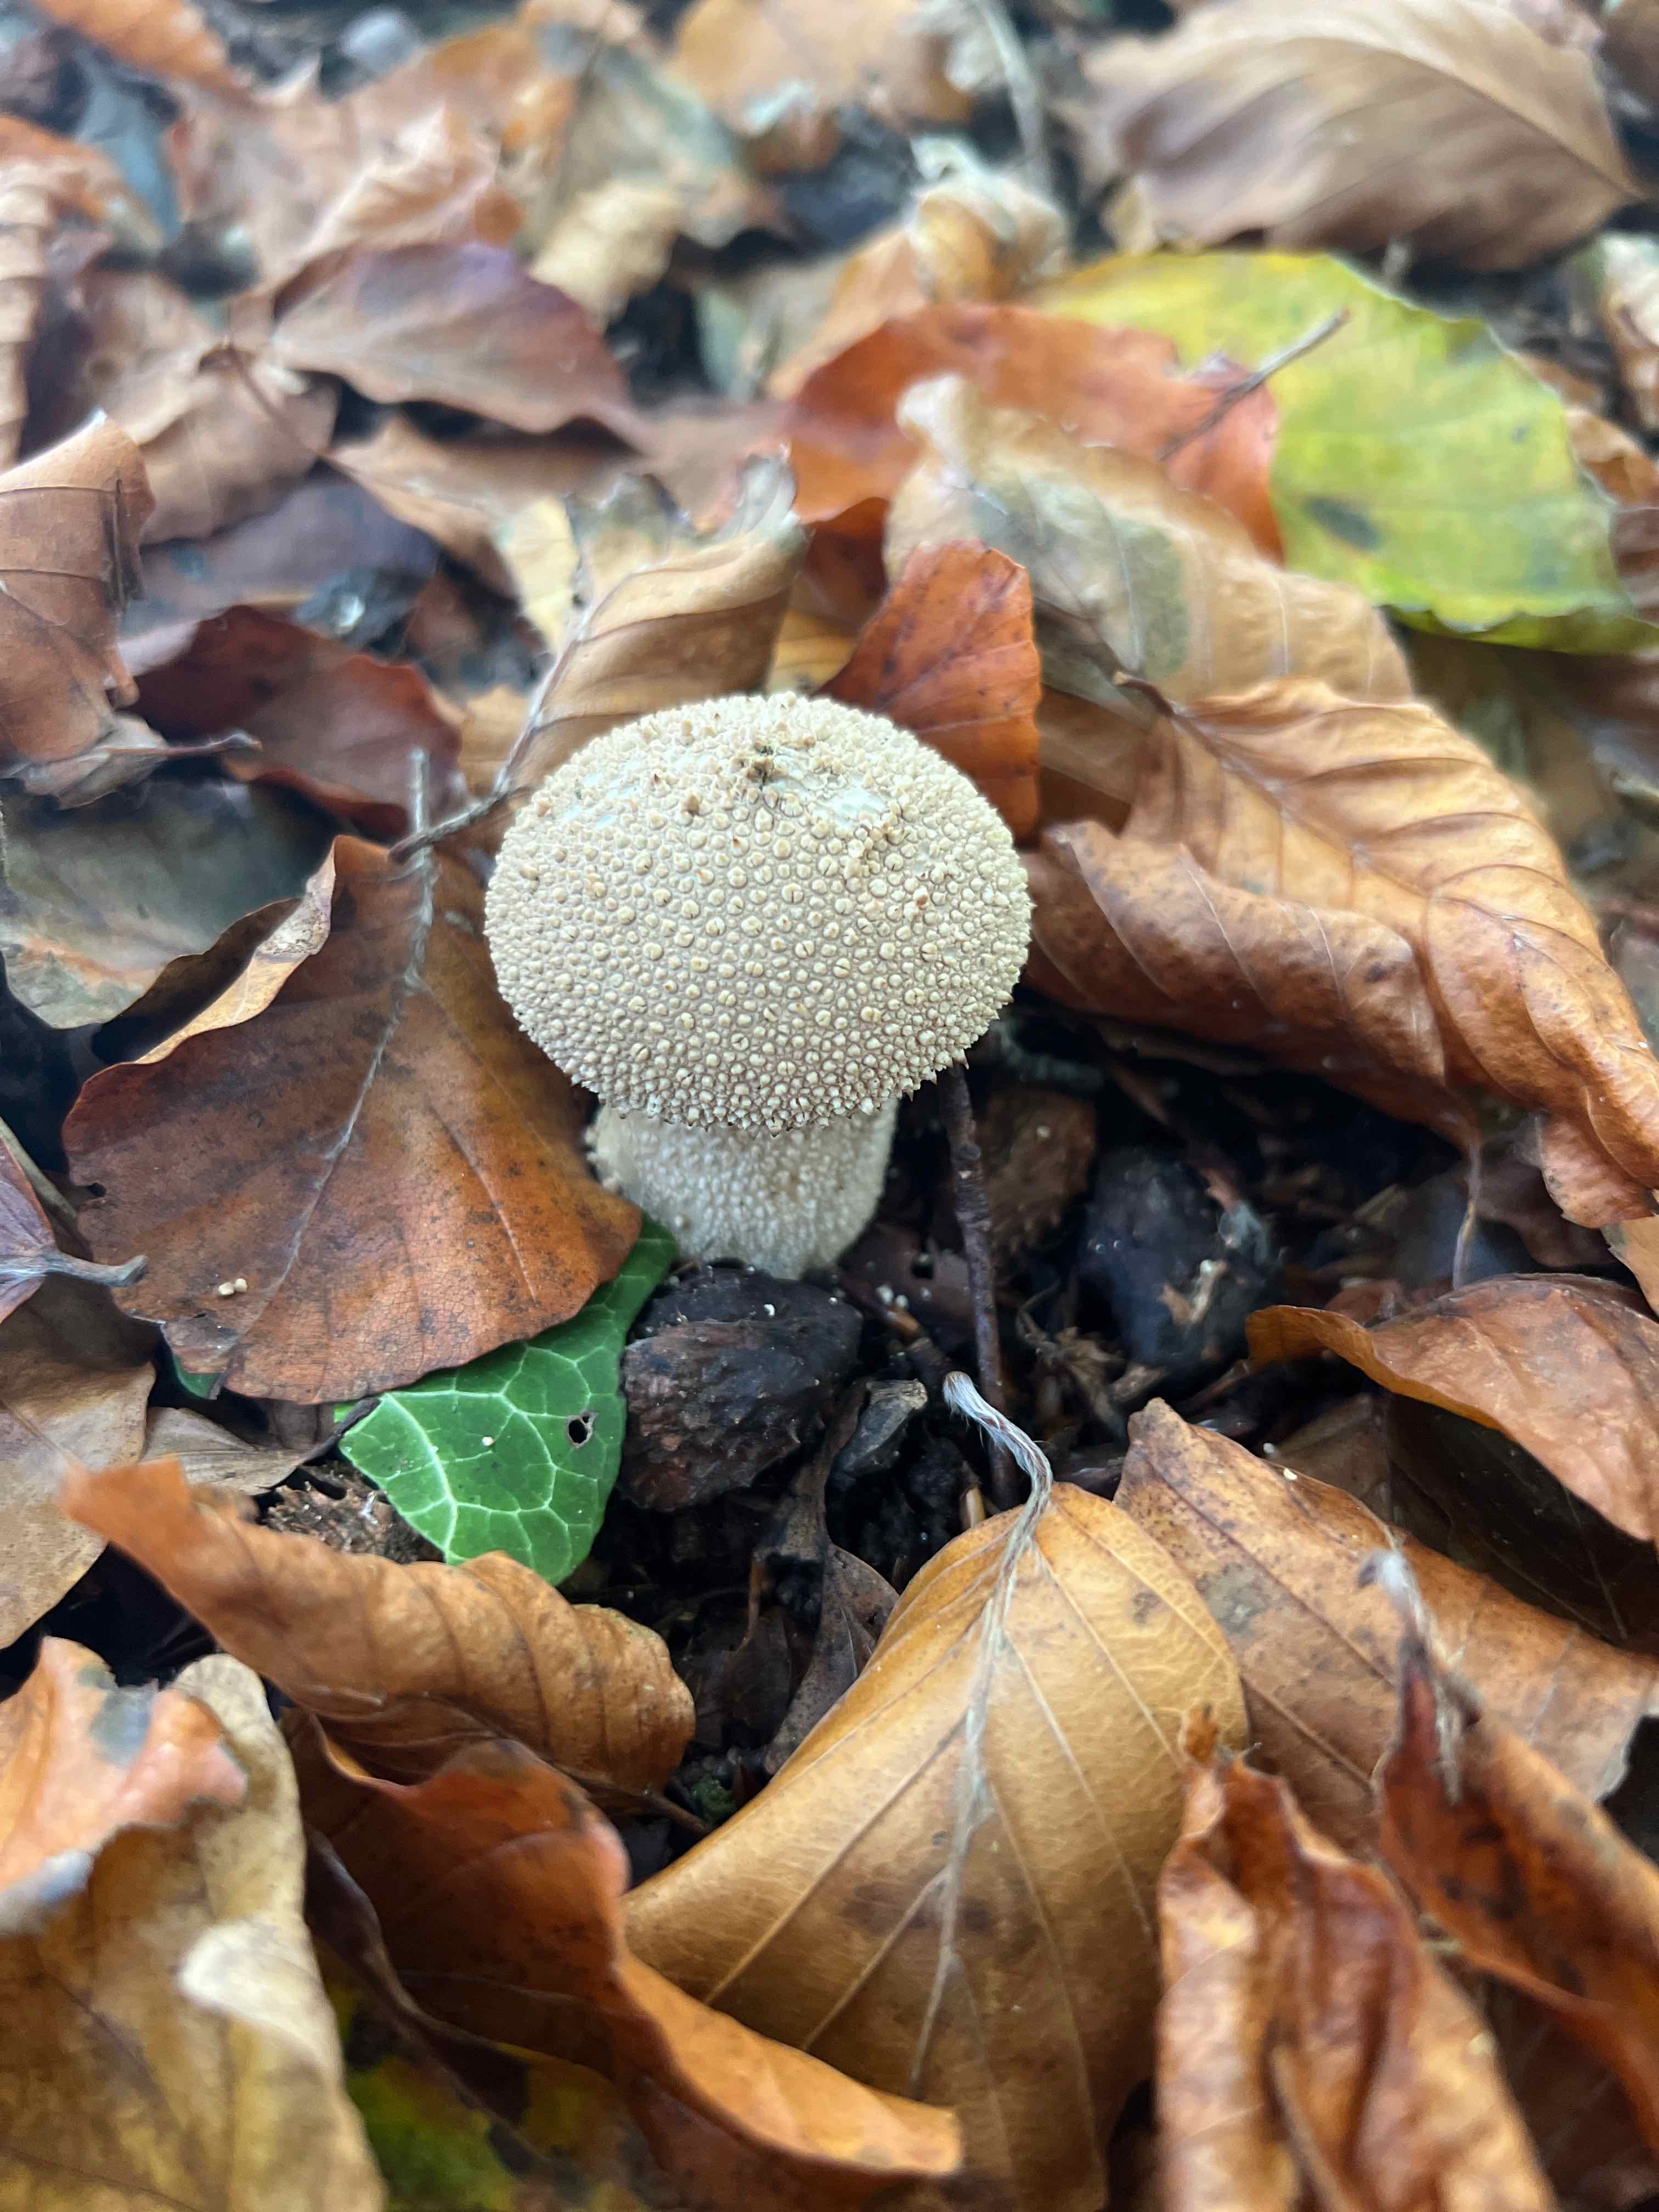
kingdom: Fungi
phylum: Basidiomycota
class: Agaricomycetes
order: Agaricales
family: Lycoperdaceae
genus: Lycoperdon
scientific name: Lycoperdon perlatum
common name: krystal-støvbold
